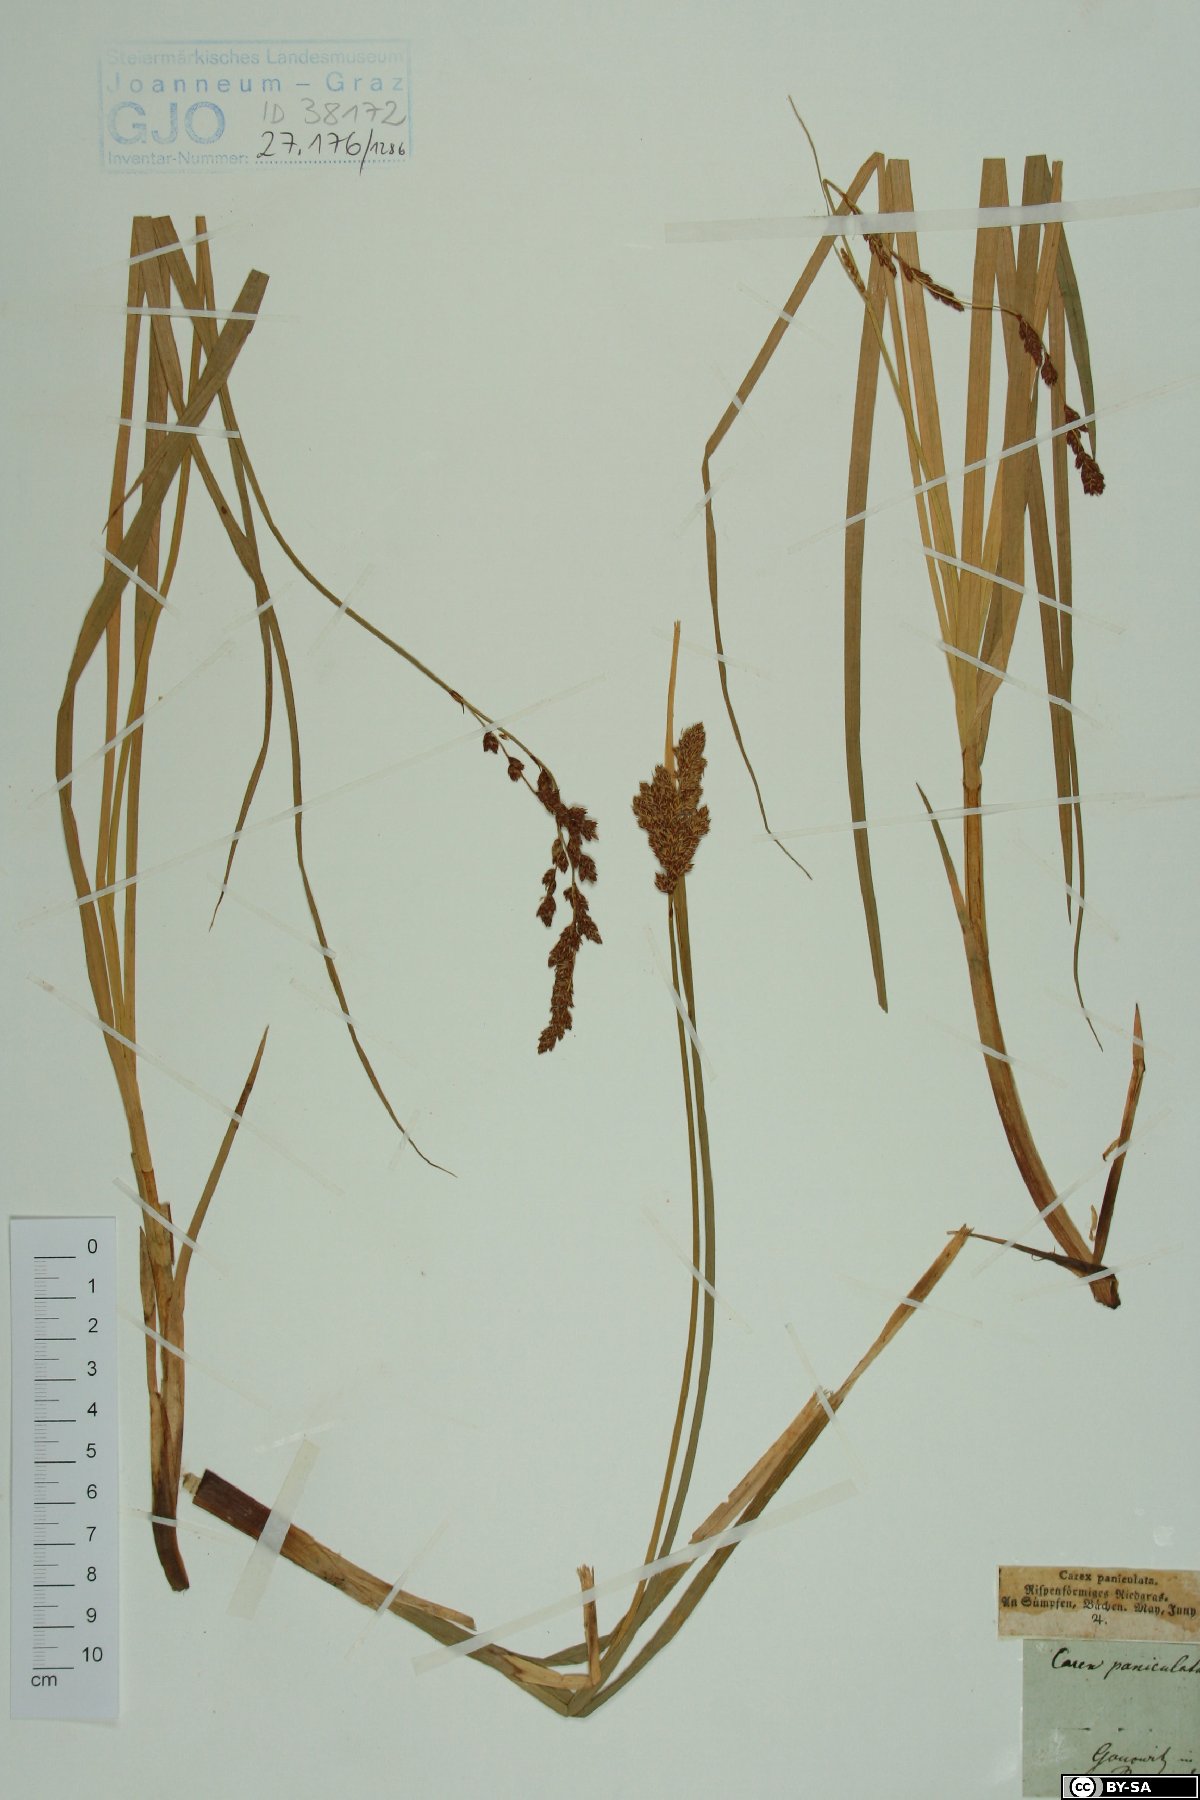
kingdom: Plantae
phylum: Tracheophyta
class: Liliopsida
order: Poales
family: Cyperaceae
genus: Carex
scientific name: Carex paniculata
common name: Greater tussock-sedge
